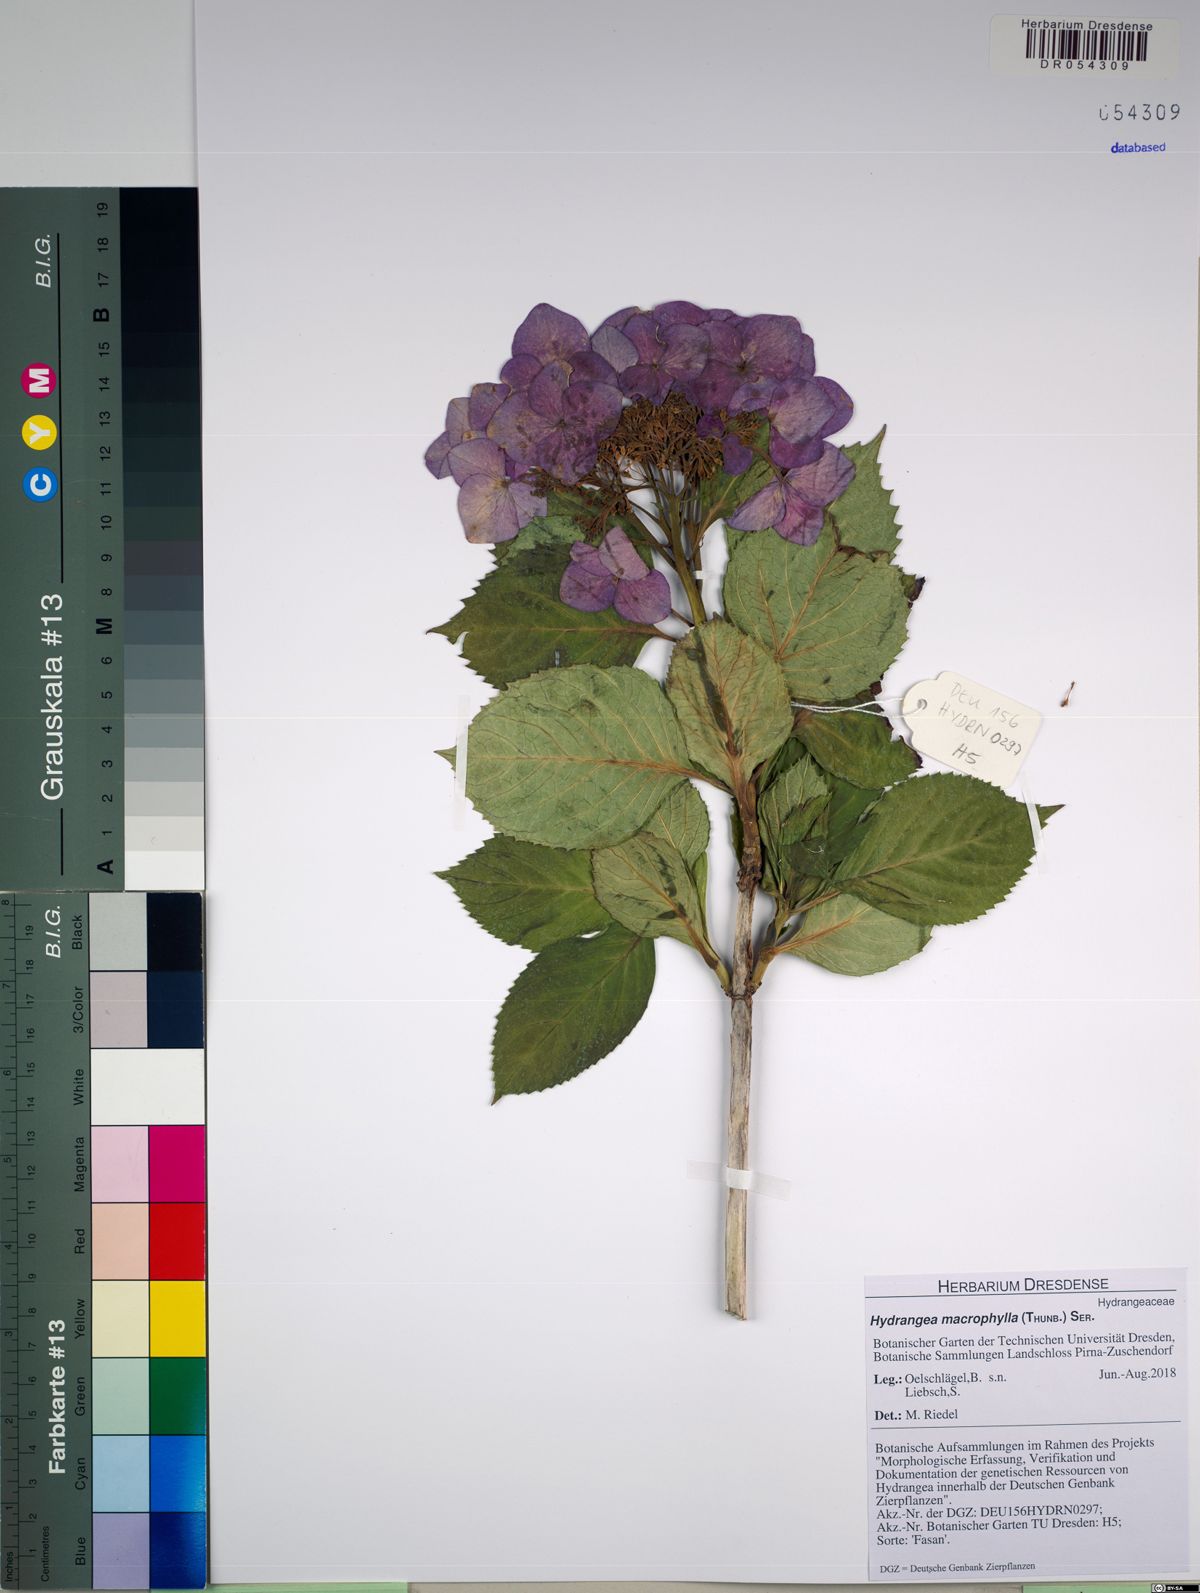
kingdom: Plantae
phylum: Tracheophyta
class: Magnoliopsida
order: Cornales
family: Hydrangeaceae
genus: Hydrangea
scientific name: Hydrangea macrophylla
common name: Hydrangea
